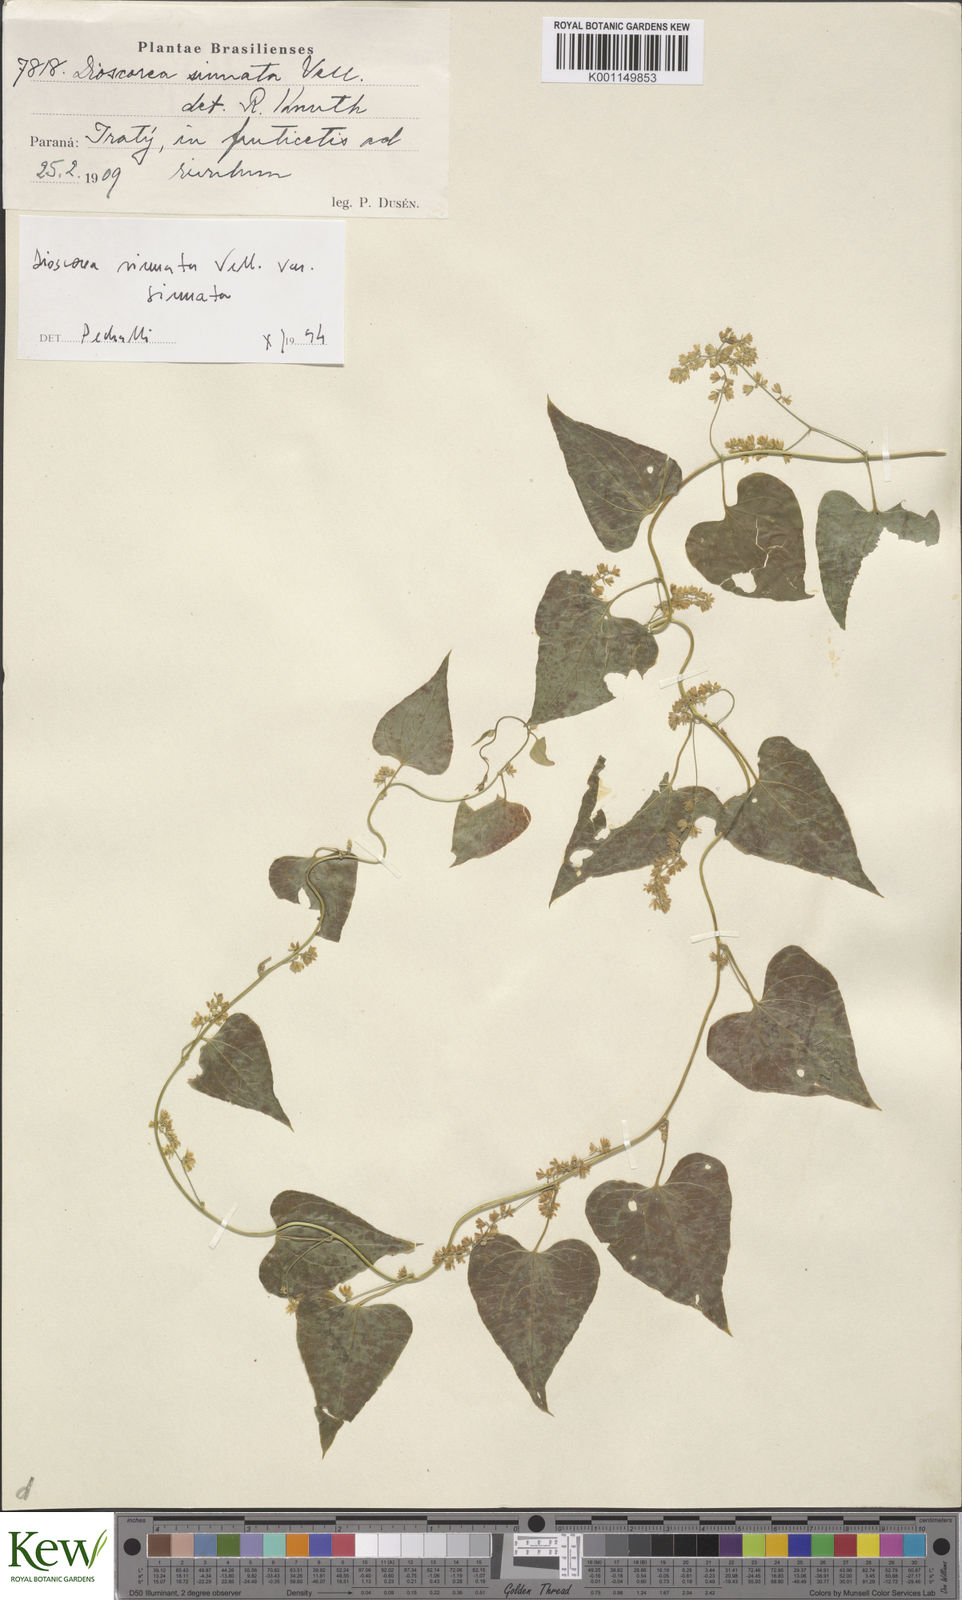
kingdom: Plantae
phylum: Tracheophyta
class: Liliopsida
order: Dioscoreales
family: Dioscoreaceae
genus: Dioscorea
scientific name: Dioscorea sinuata
